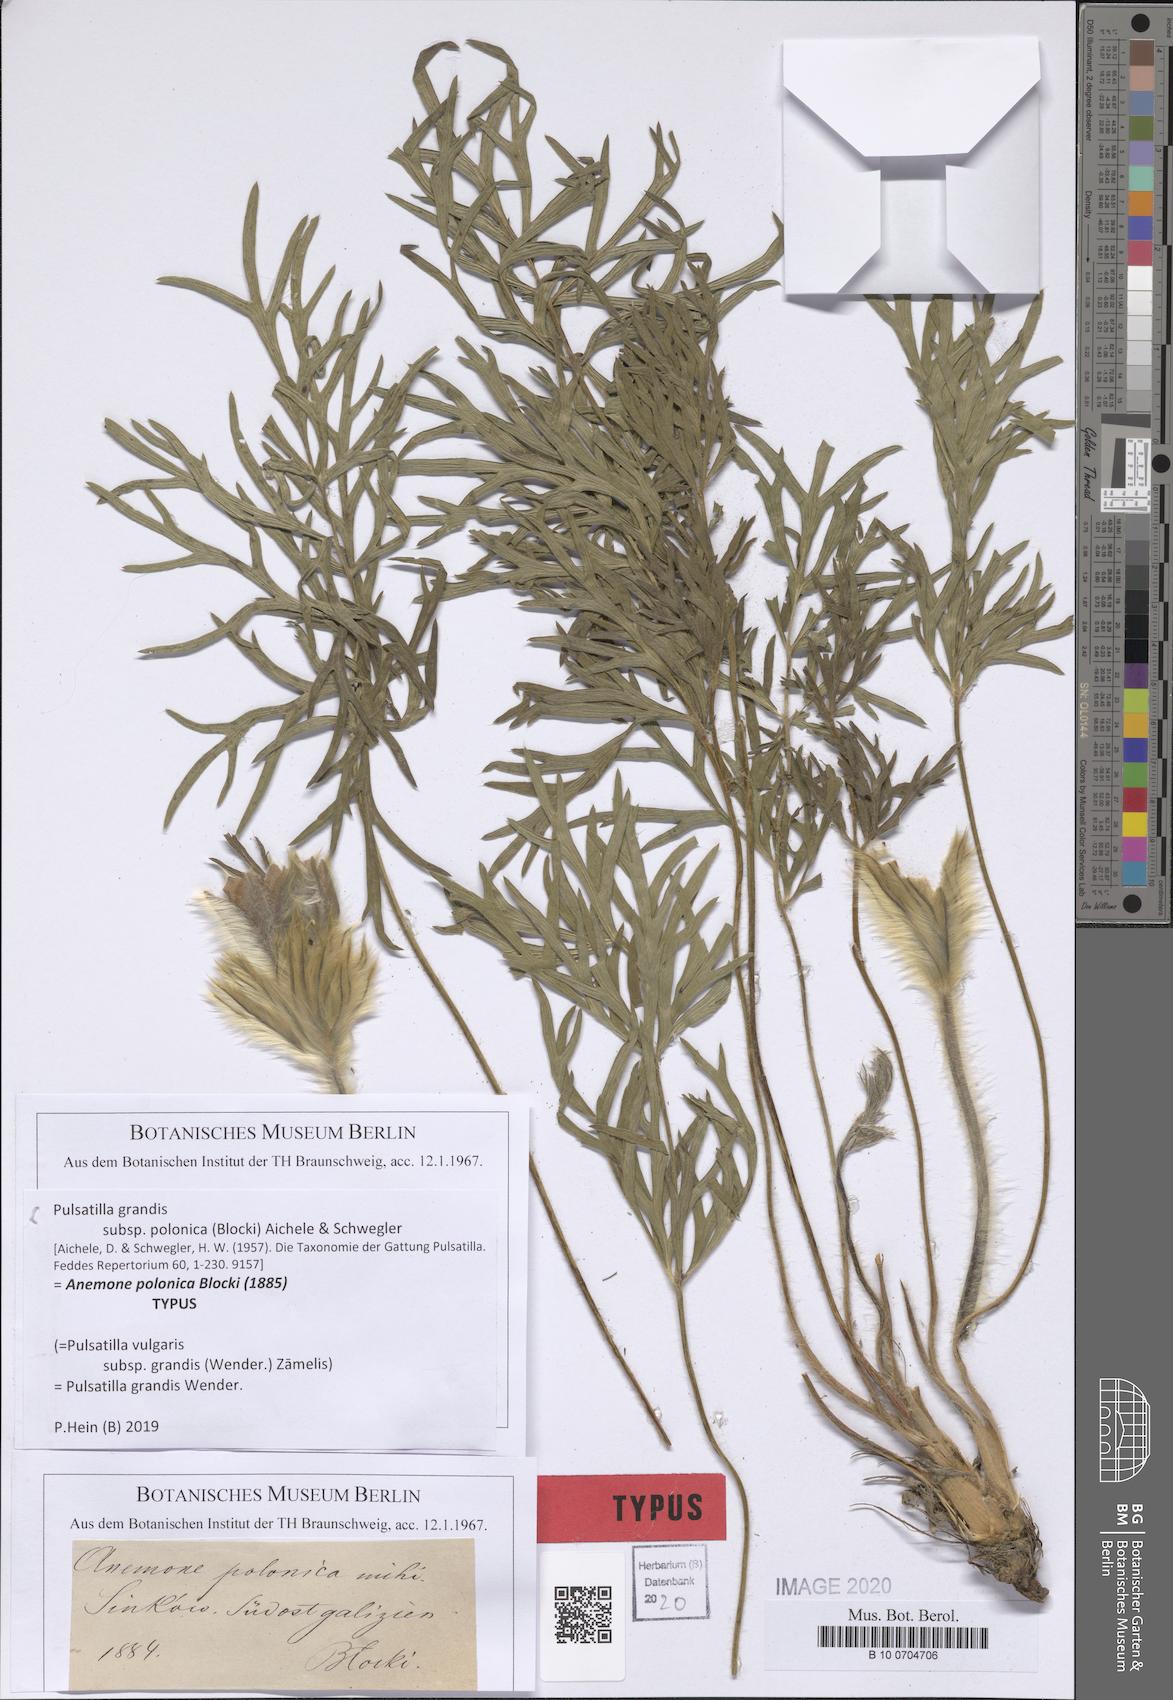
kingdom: Plantae
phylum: Tracheophyta
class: Magnoliopsida
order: Ranunculales
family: Ranunculaceae
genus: Pulsatilla
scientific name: Pulsatilla grandis
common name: Greater pasque flower
